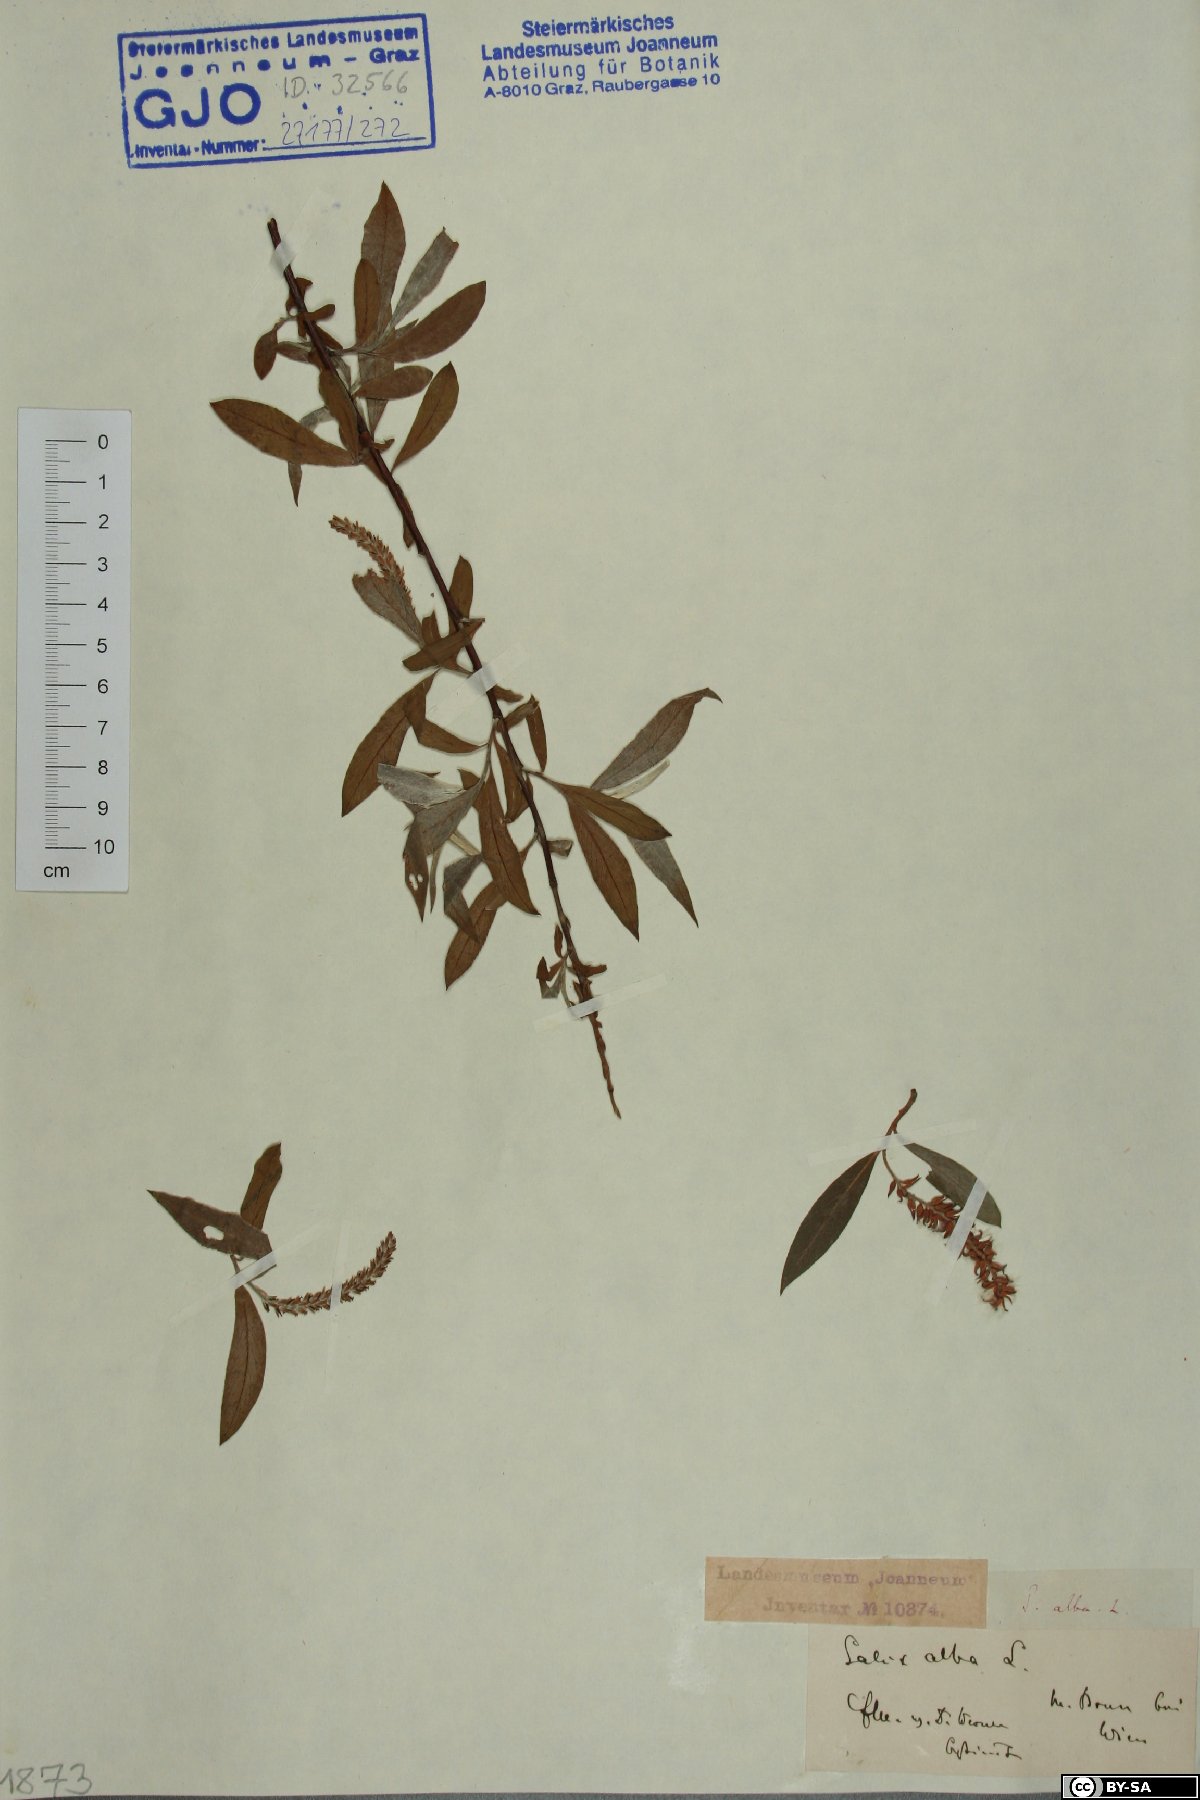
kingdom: Plantae
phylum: Tracheophyta
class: Magnoliopsida
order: Malpighiales
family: Salicaceae
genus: Salix
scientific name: Salix alba
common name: White willow
